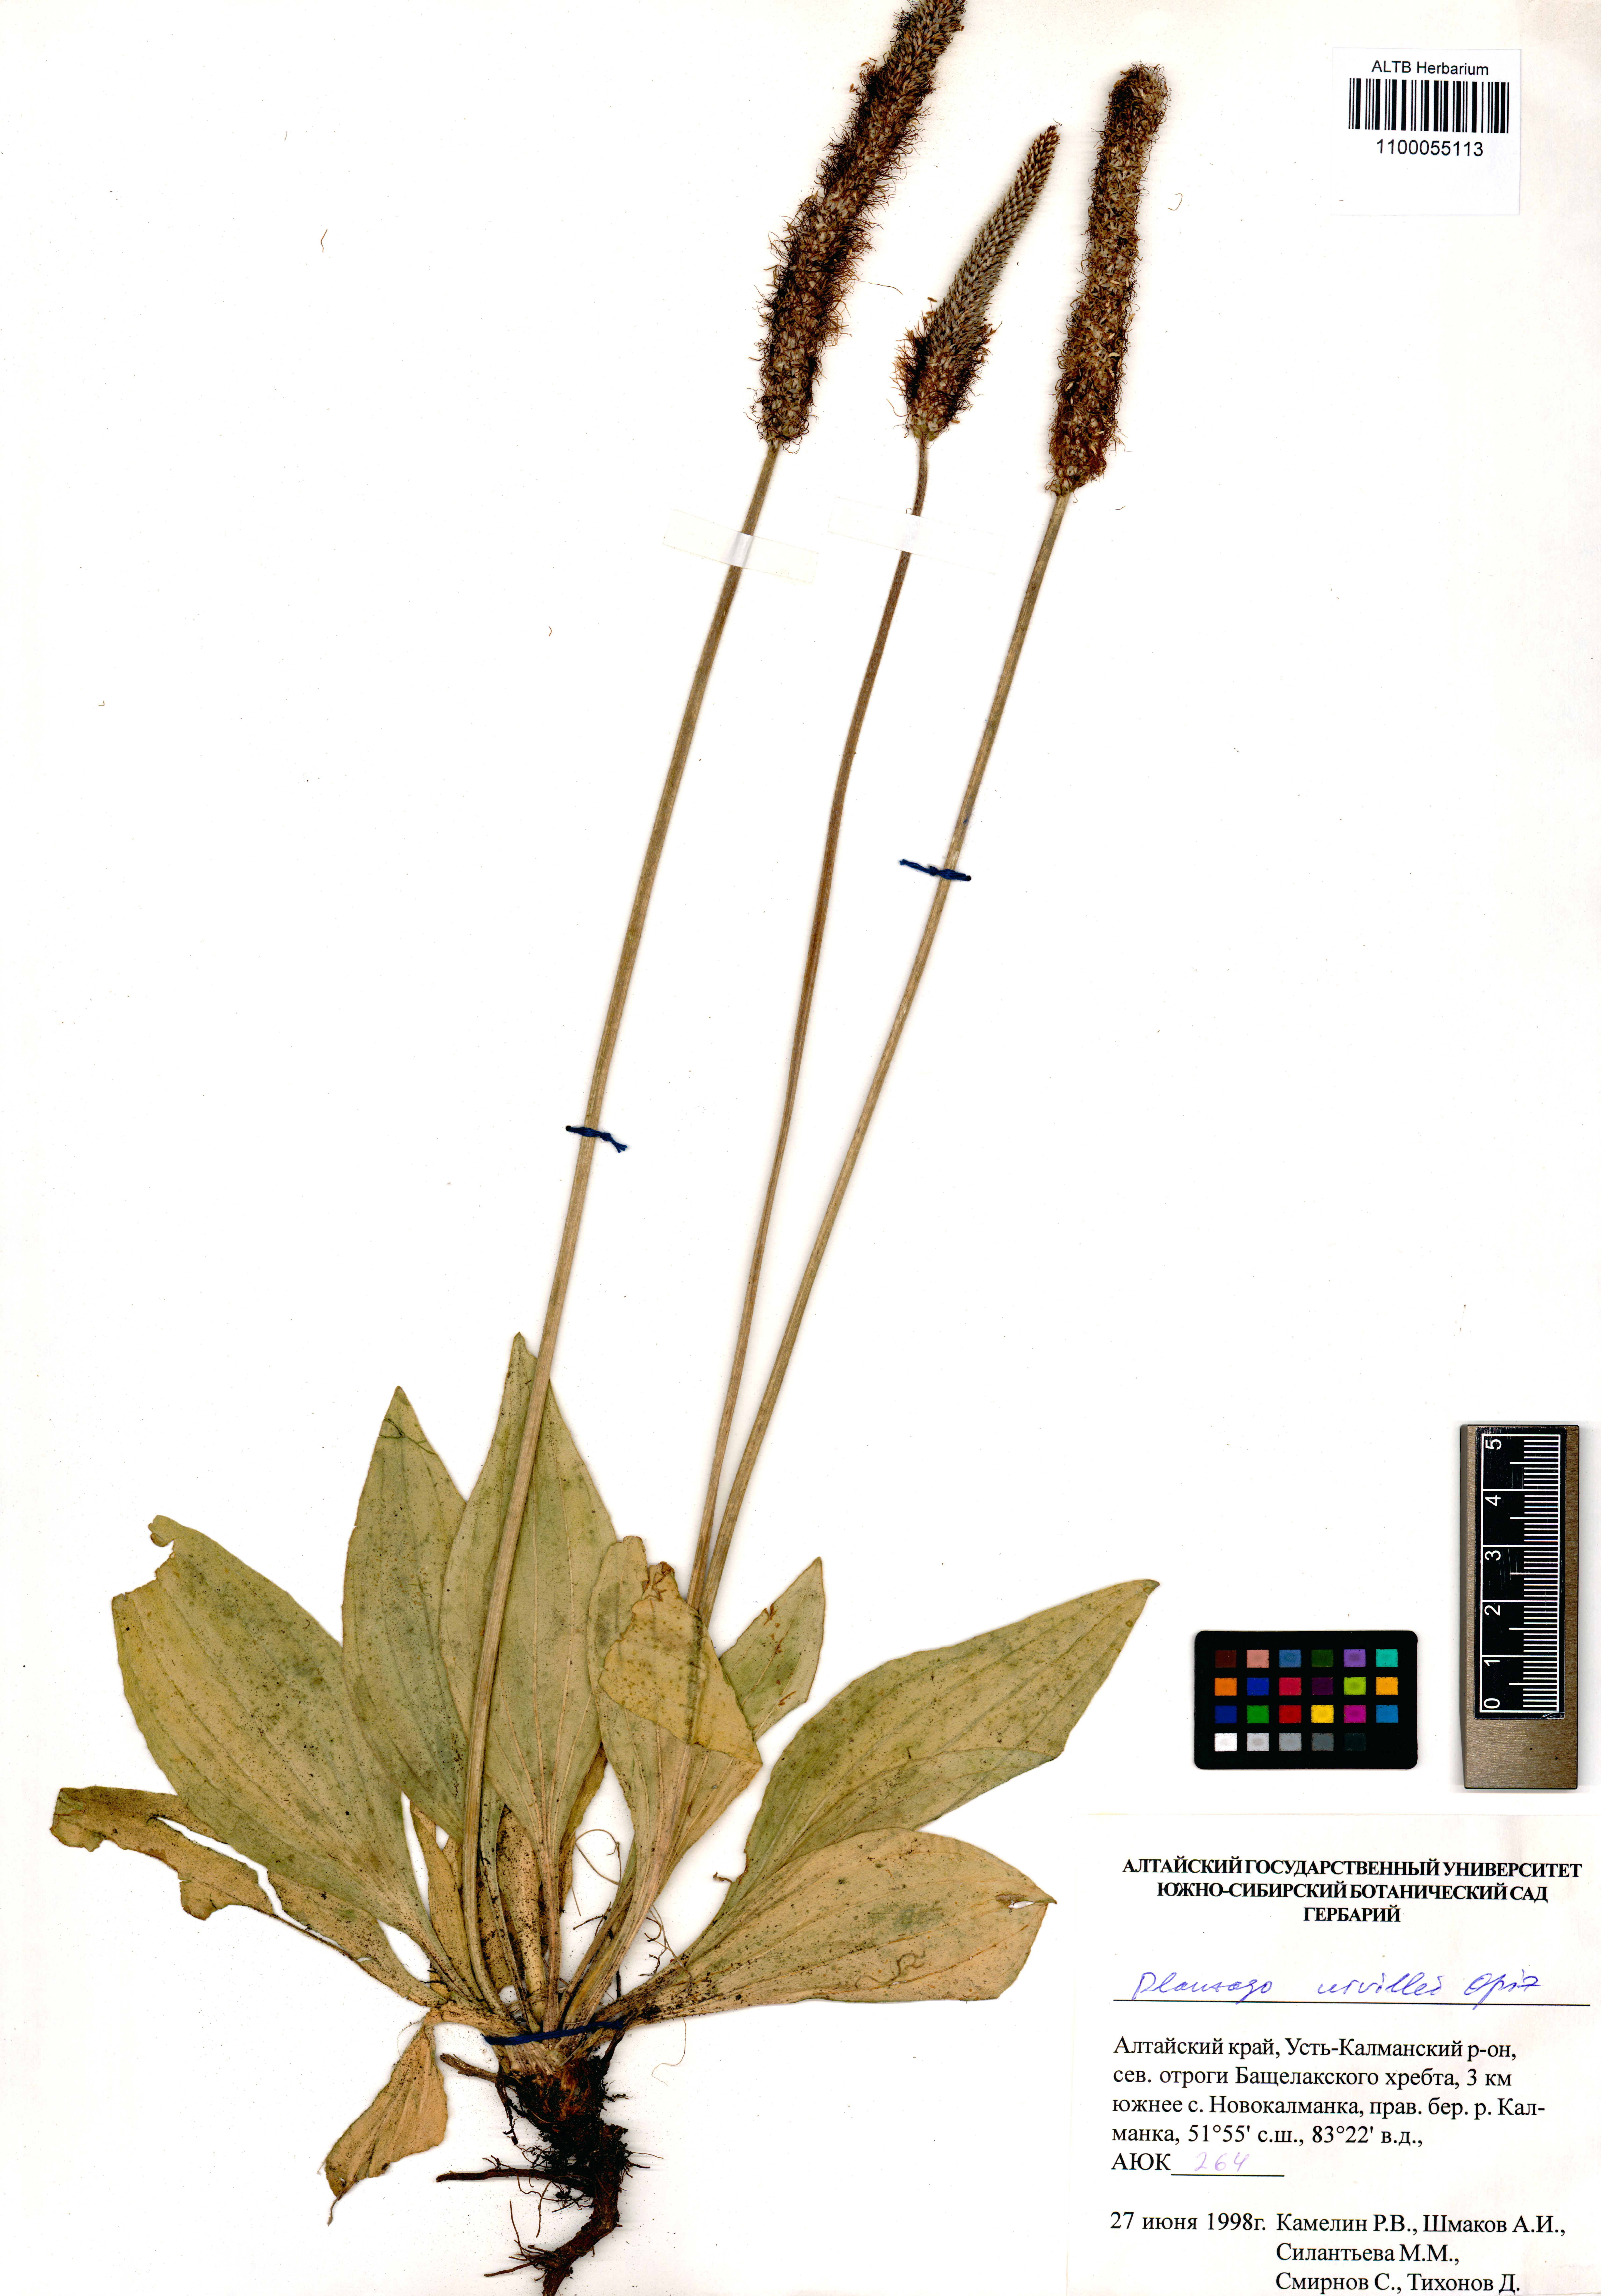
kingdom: Plantae
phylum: Tracheophyta
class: Magnoliopsida
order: Lamiales
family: Plantaginaceae
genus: Plantago
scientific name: Plantago urvillei
